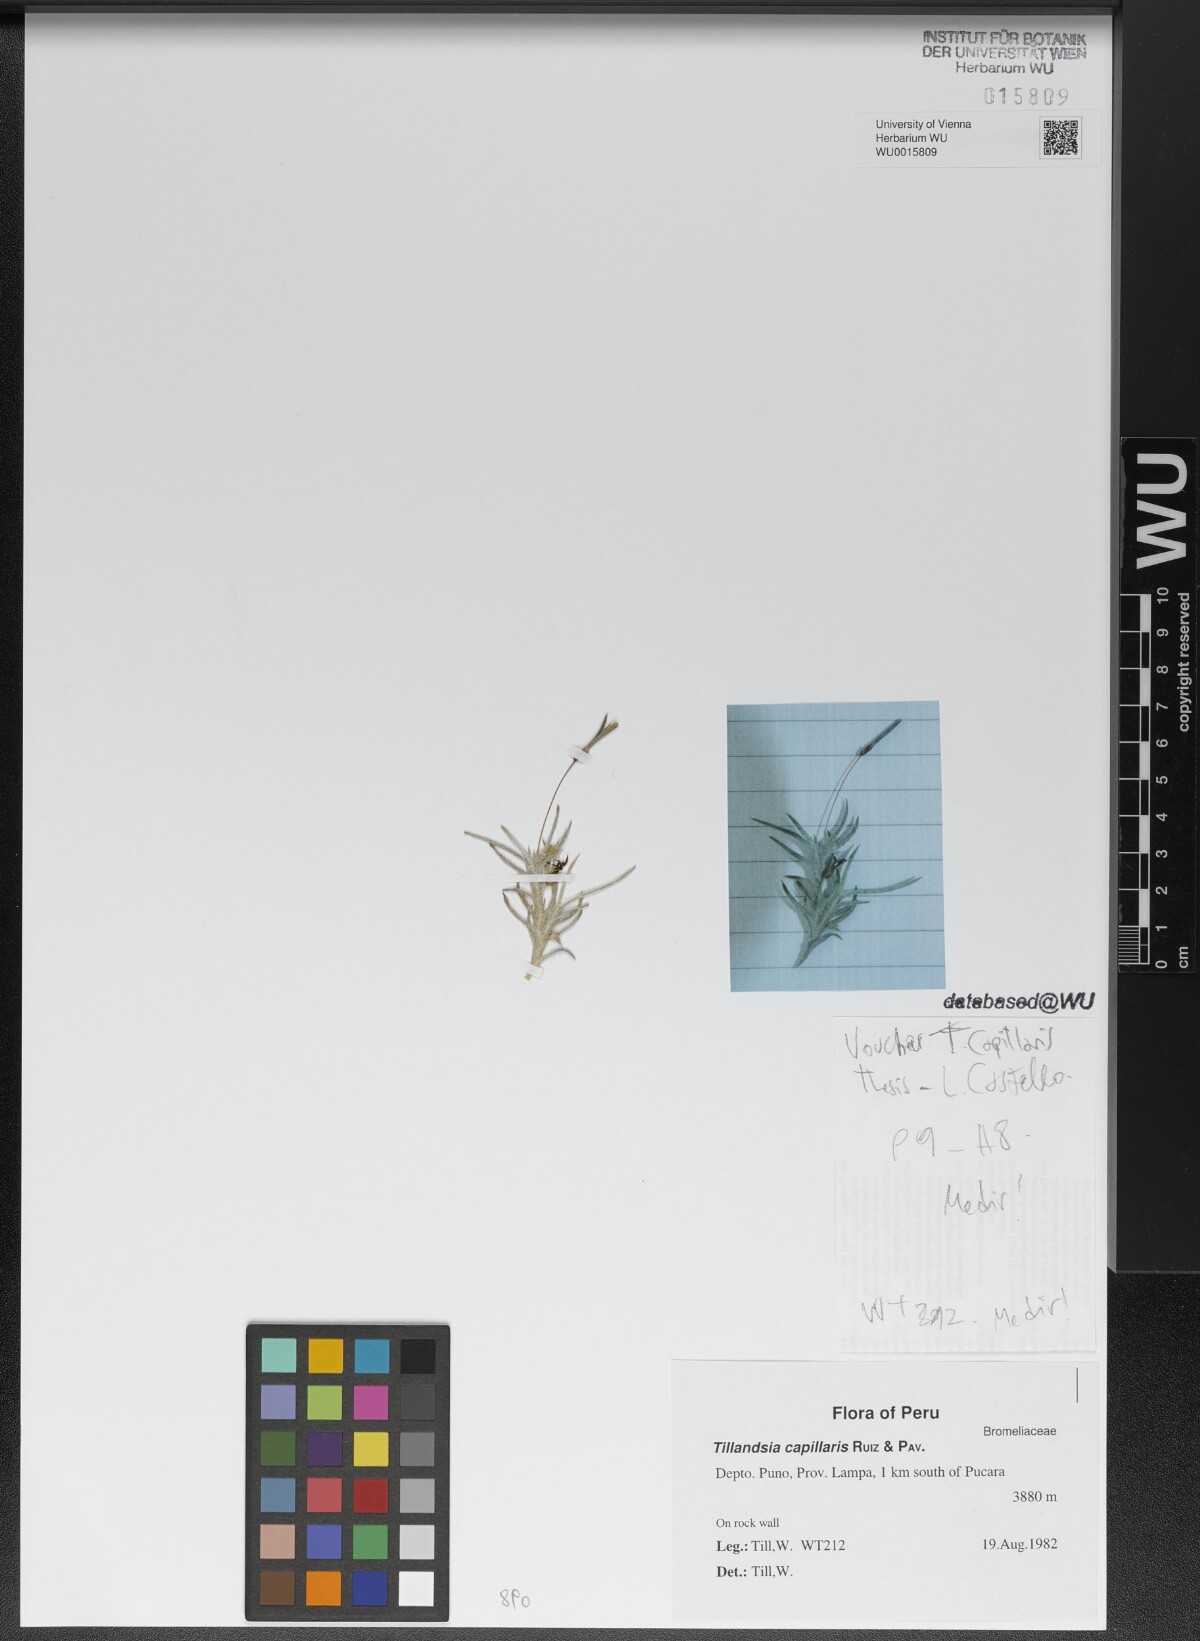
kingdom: Plantae
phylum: Tracheophyta
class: Liliopsida
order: Poales
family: Bromeliaceae
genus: Tillandsia
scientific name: Tillandsia capillaris
